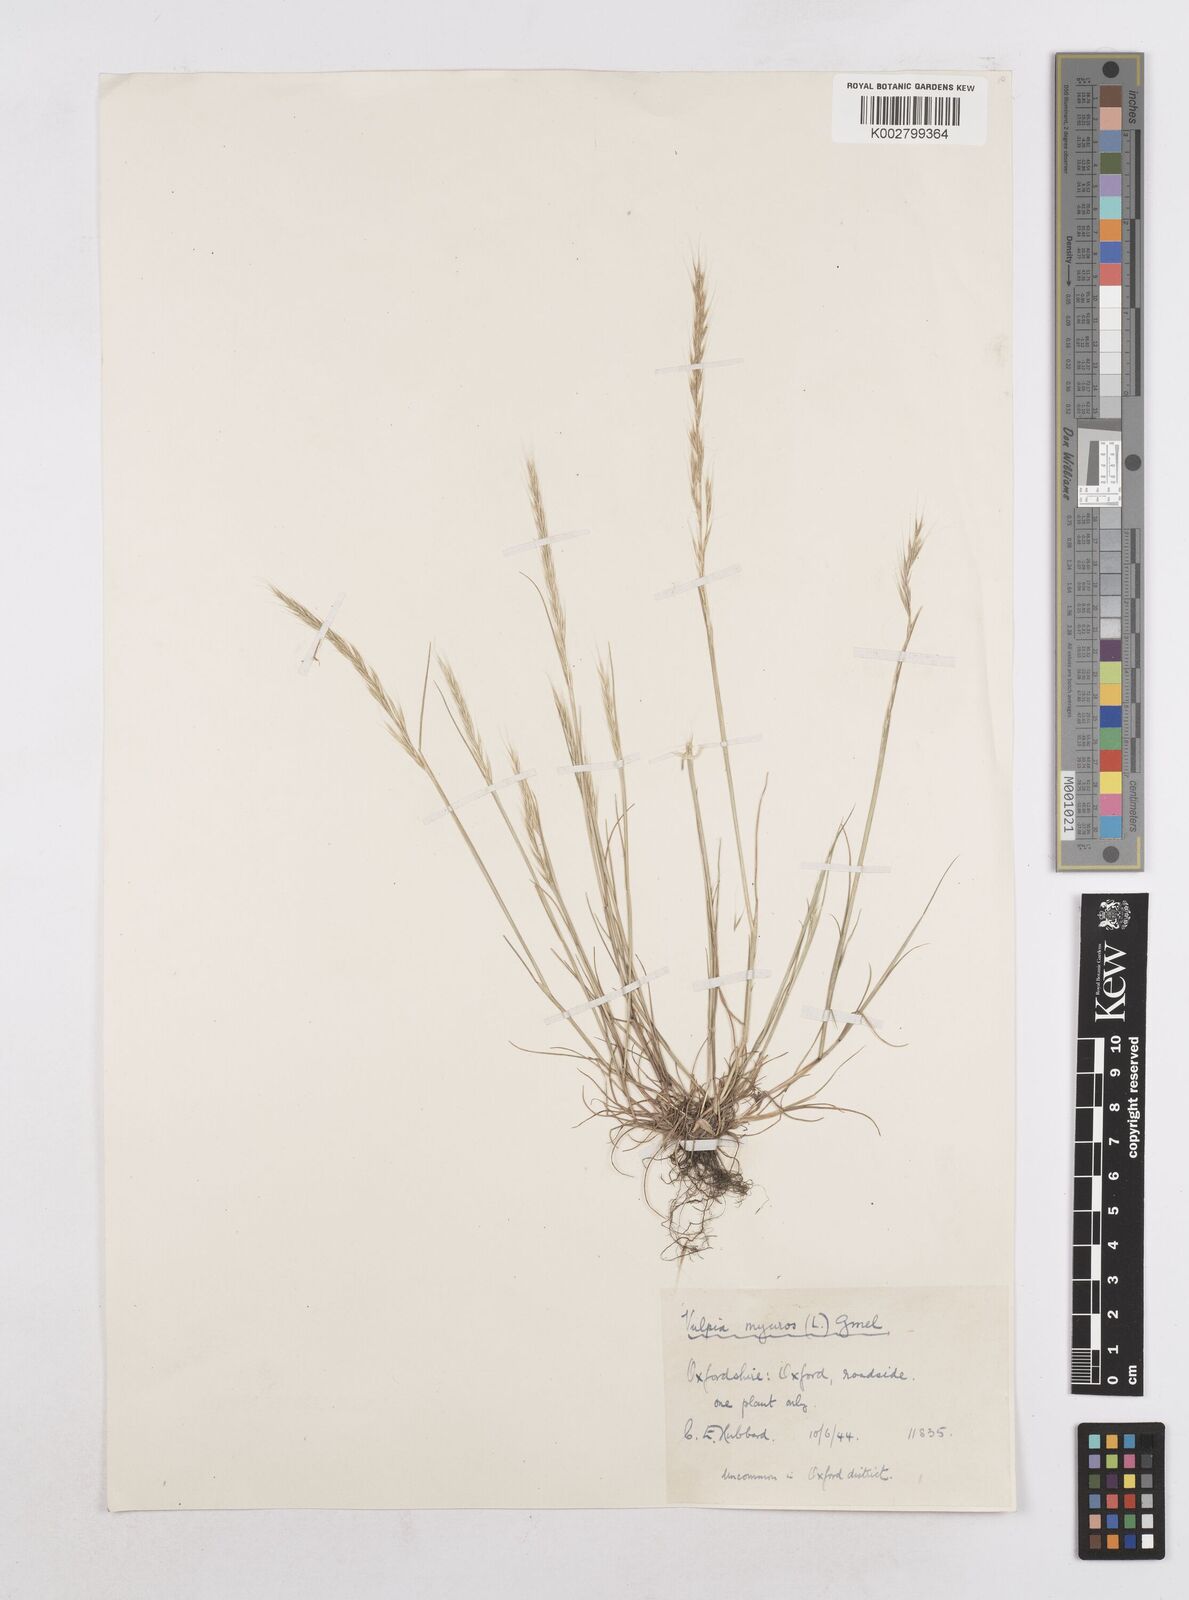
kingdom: Plantae
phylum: Tracheophyta
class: Liliopsida
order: Poales
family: Poaceae
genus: Festuca
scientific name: Festuca myuros
